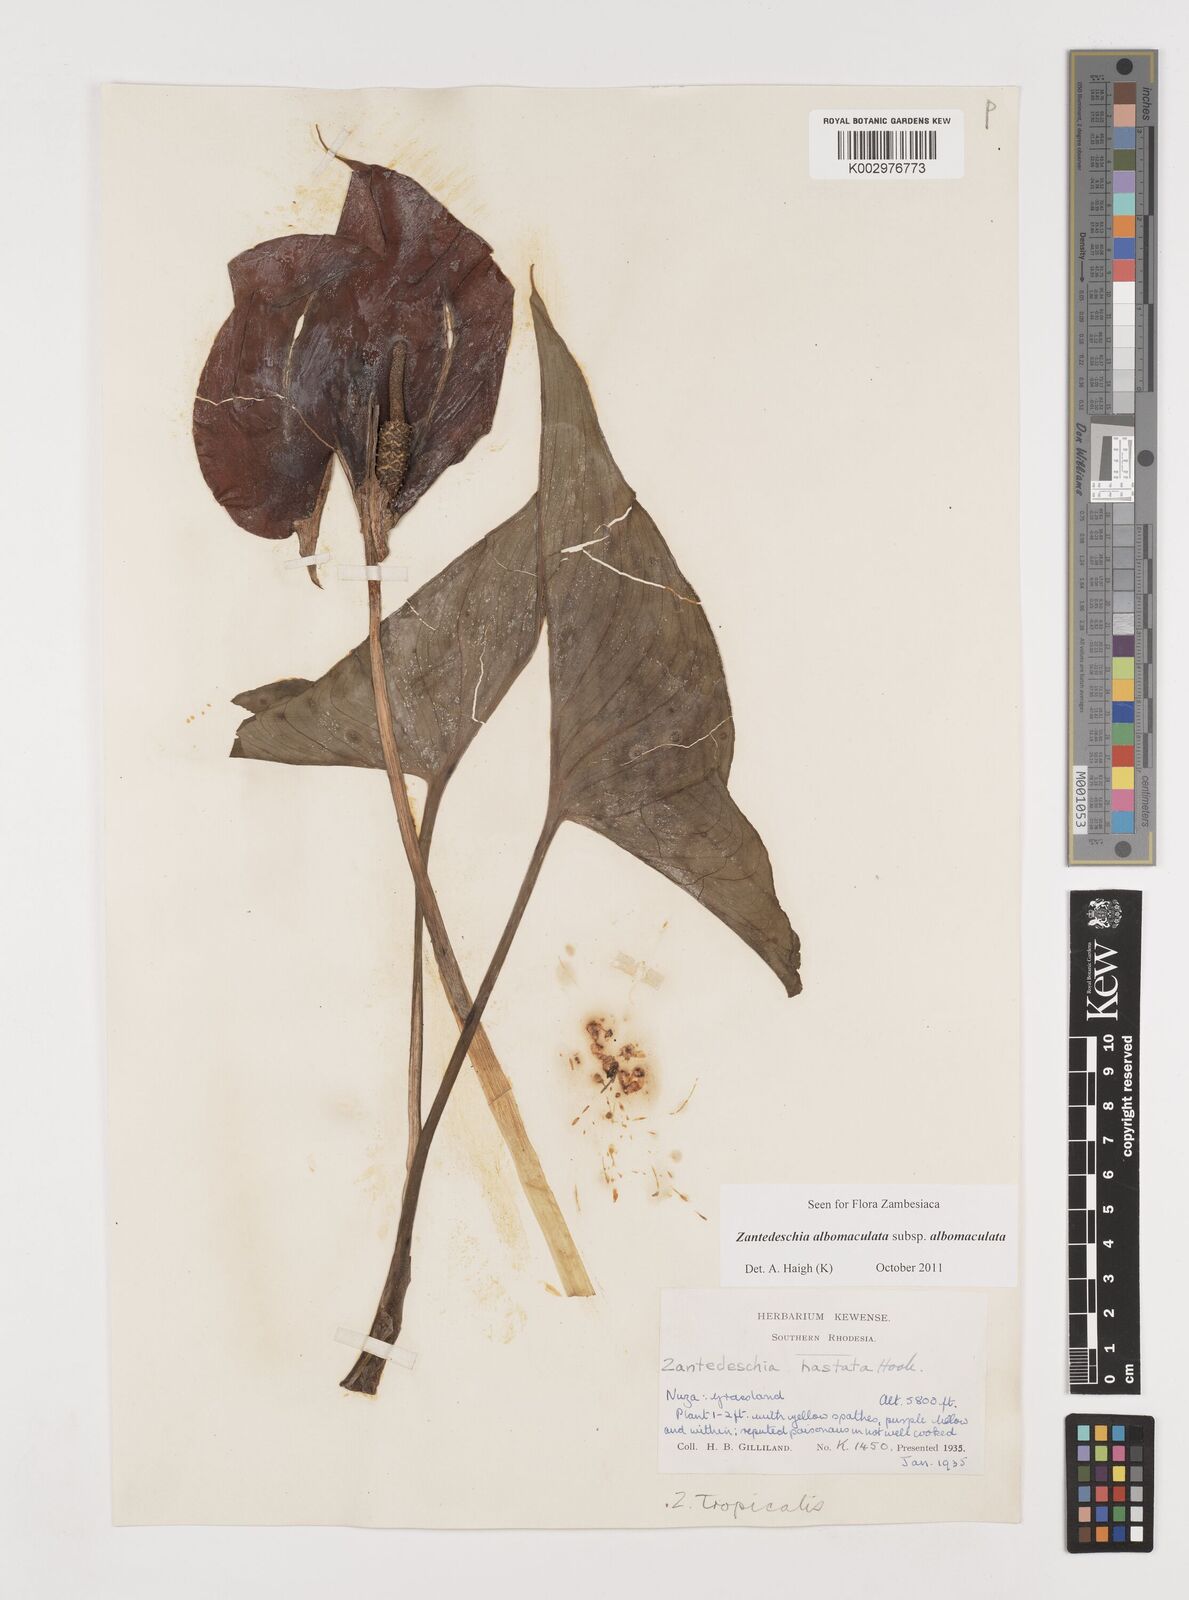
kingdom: Plantae
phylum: Tracheophyta
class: Liliopsida
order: Alismatales
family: Araceae
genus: Zantedeschia
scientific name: Zantedeschia albomaculata
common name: Spotted calla lily
